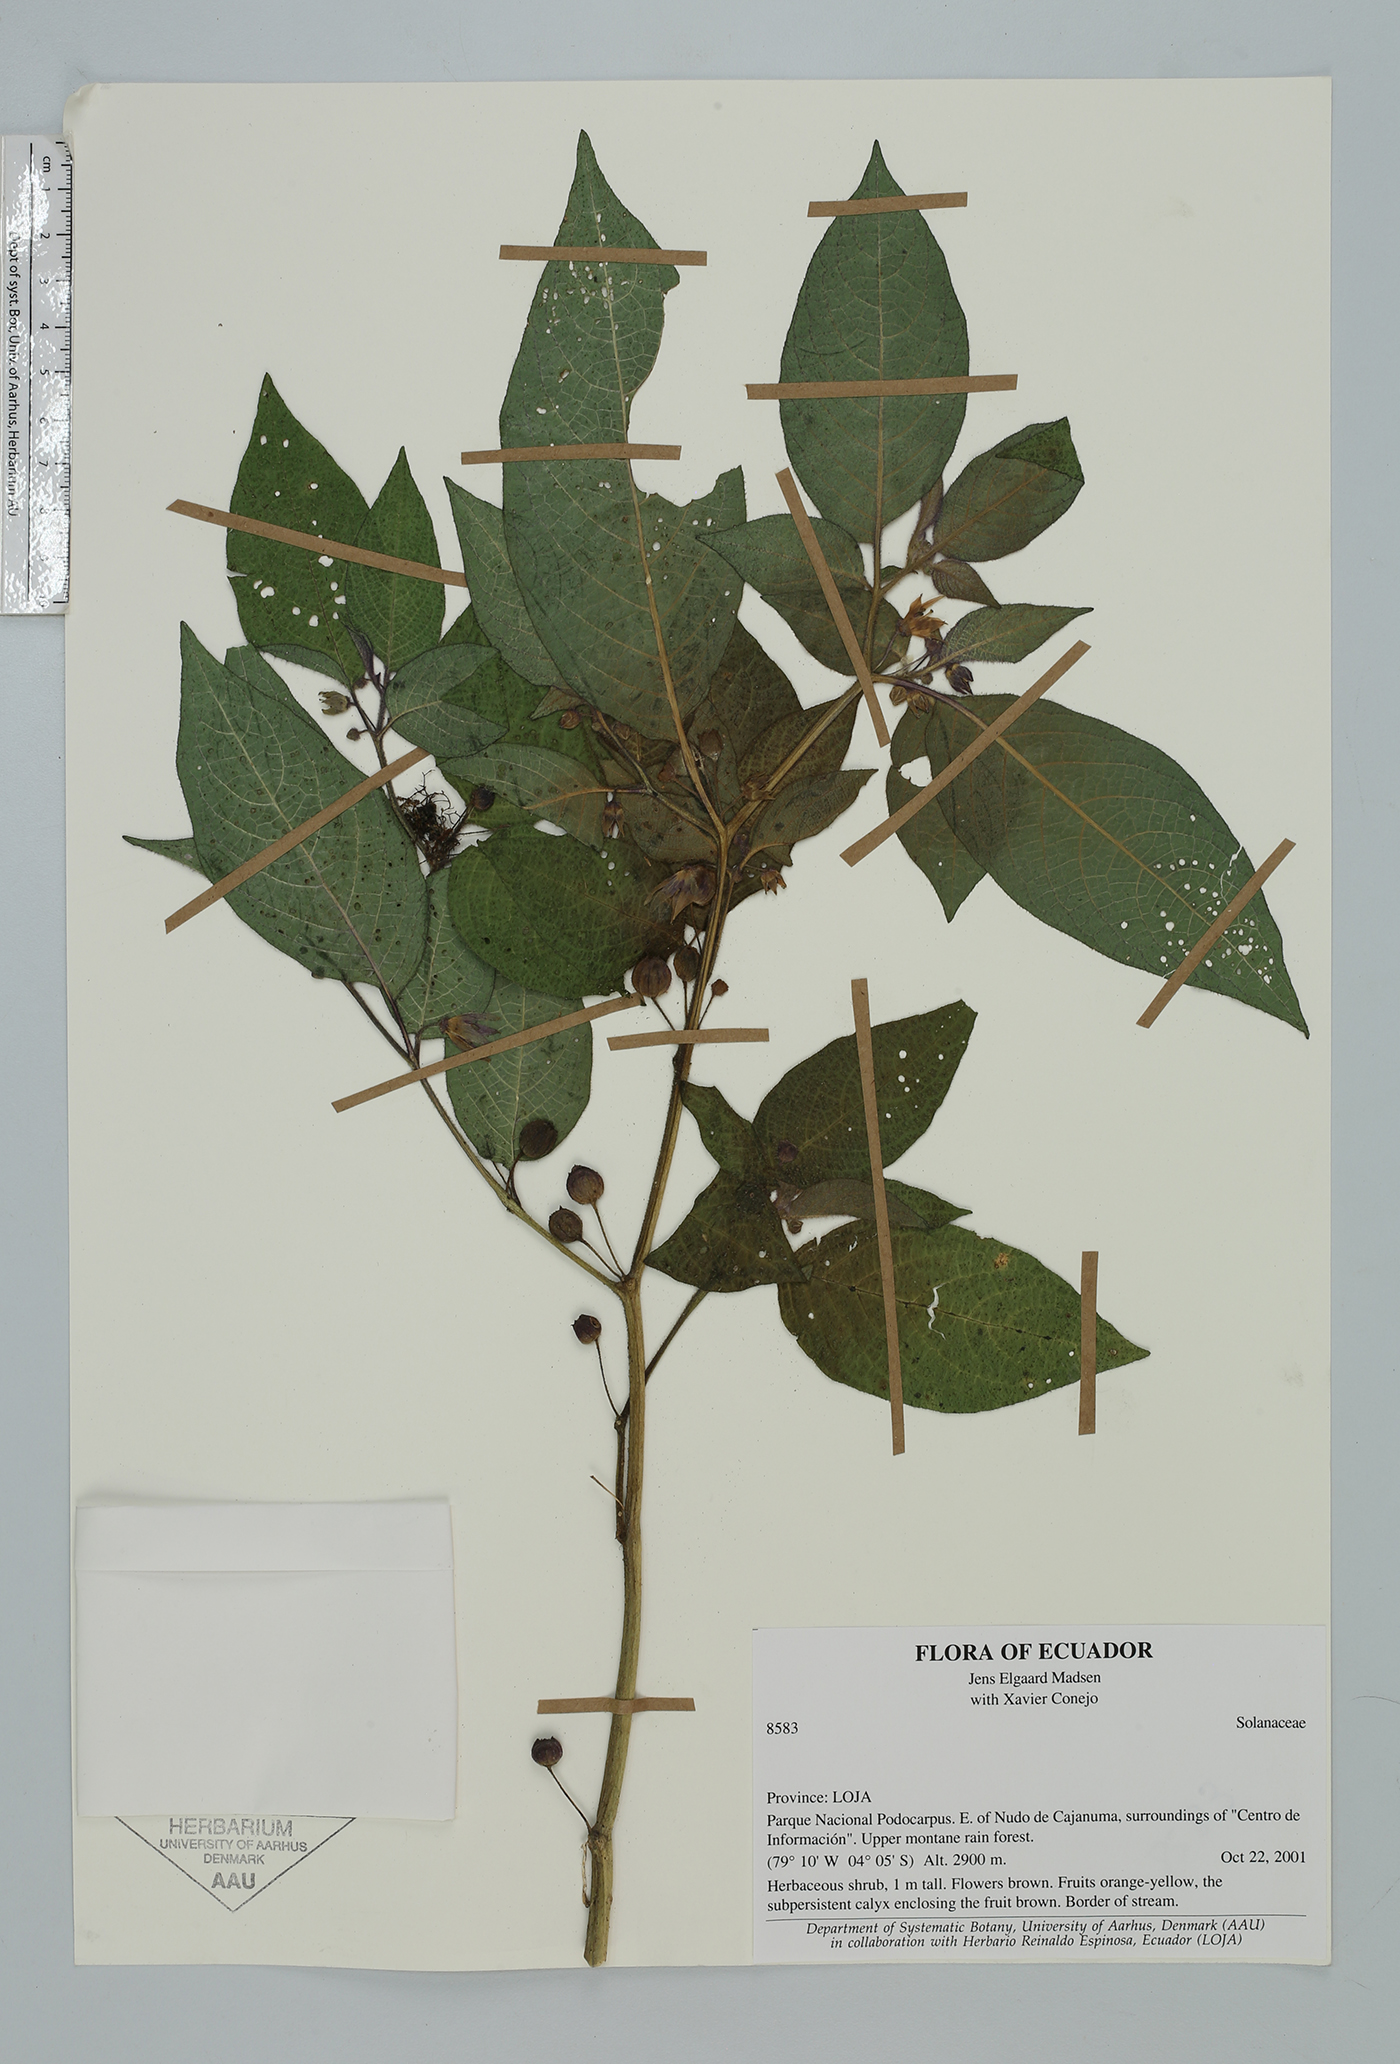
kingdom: Plantae
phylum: Tracheophyta
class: Magnoliopsida
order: Solanales
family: Solanaceae
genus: Deprea
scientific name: Deprea
